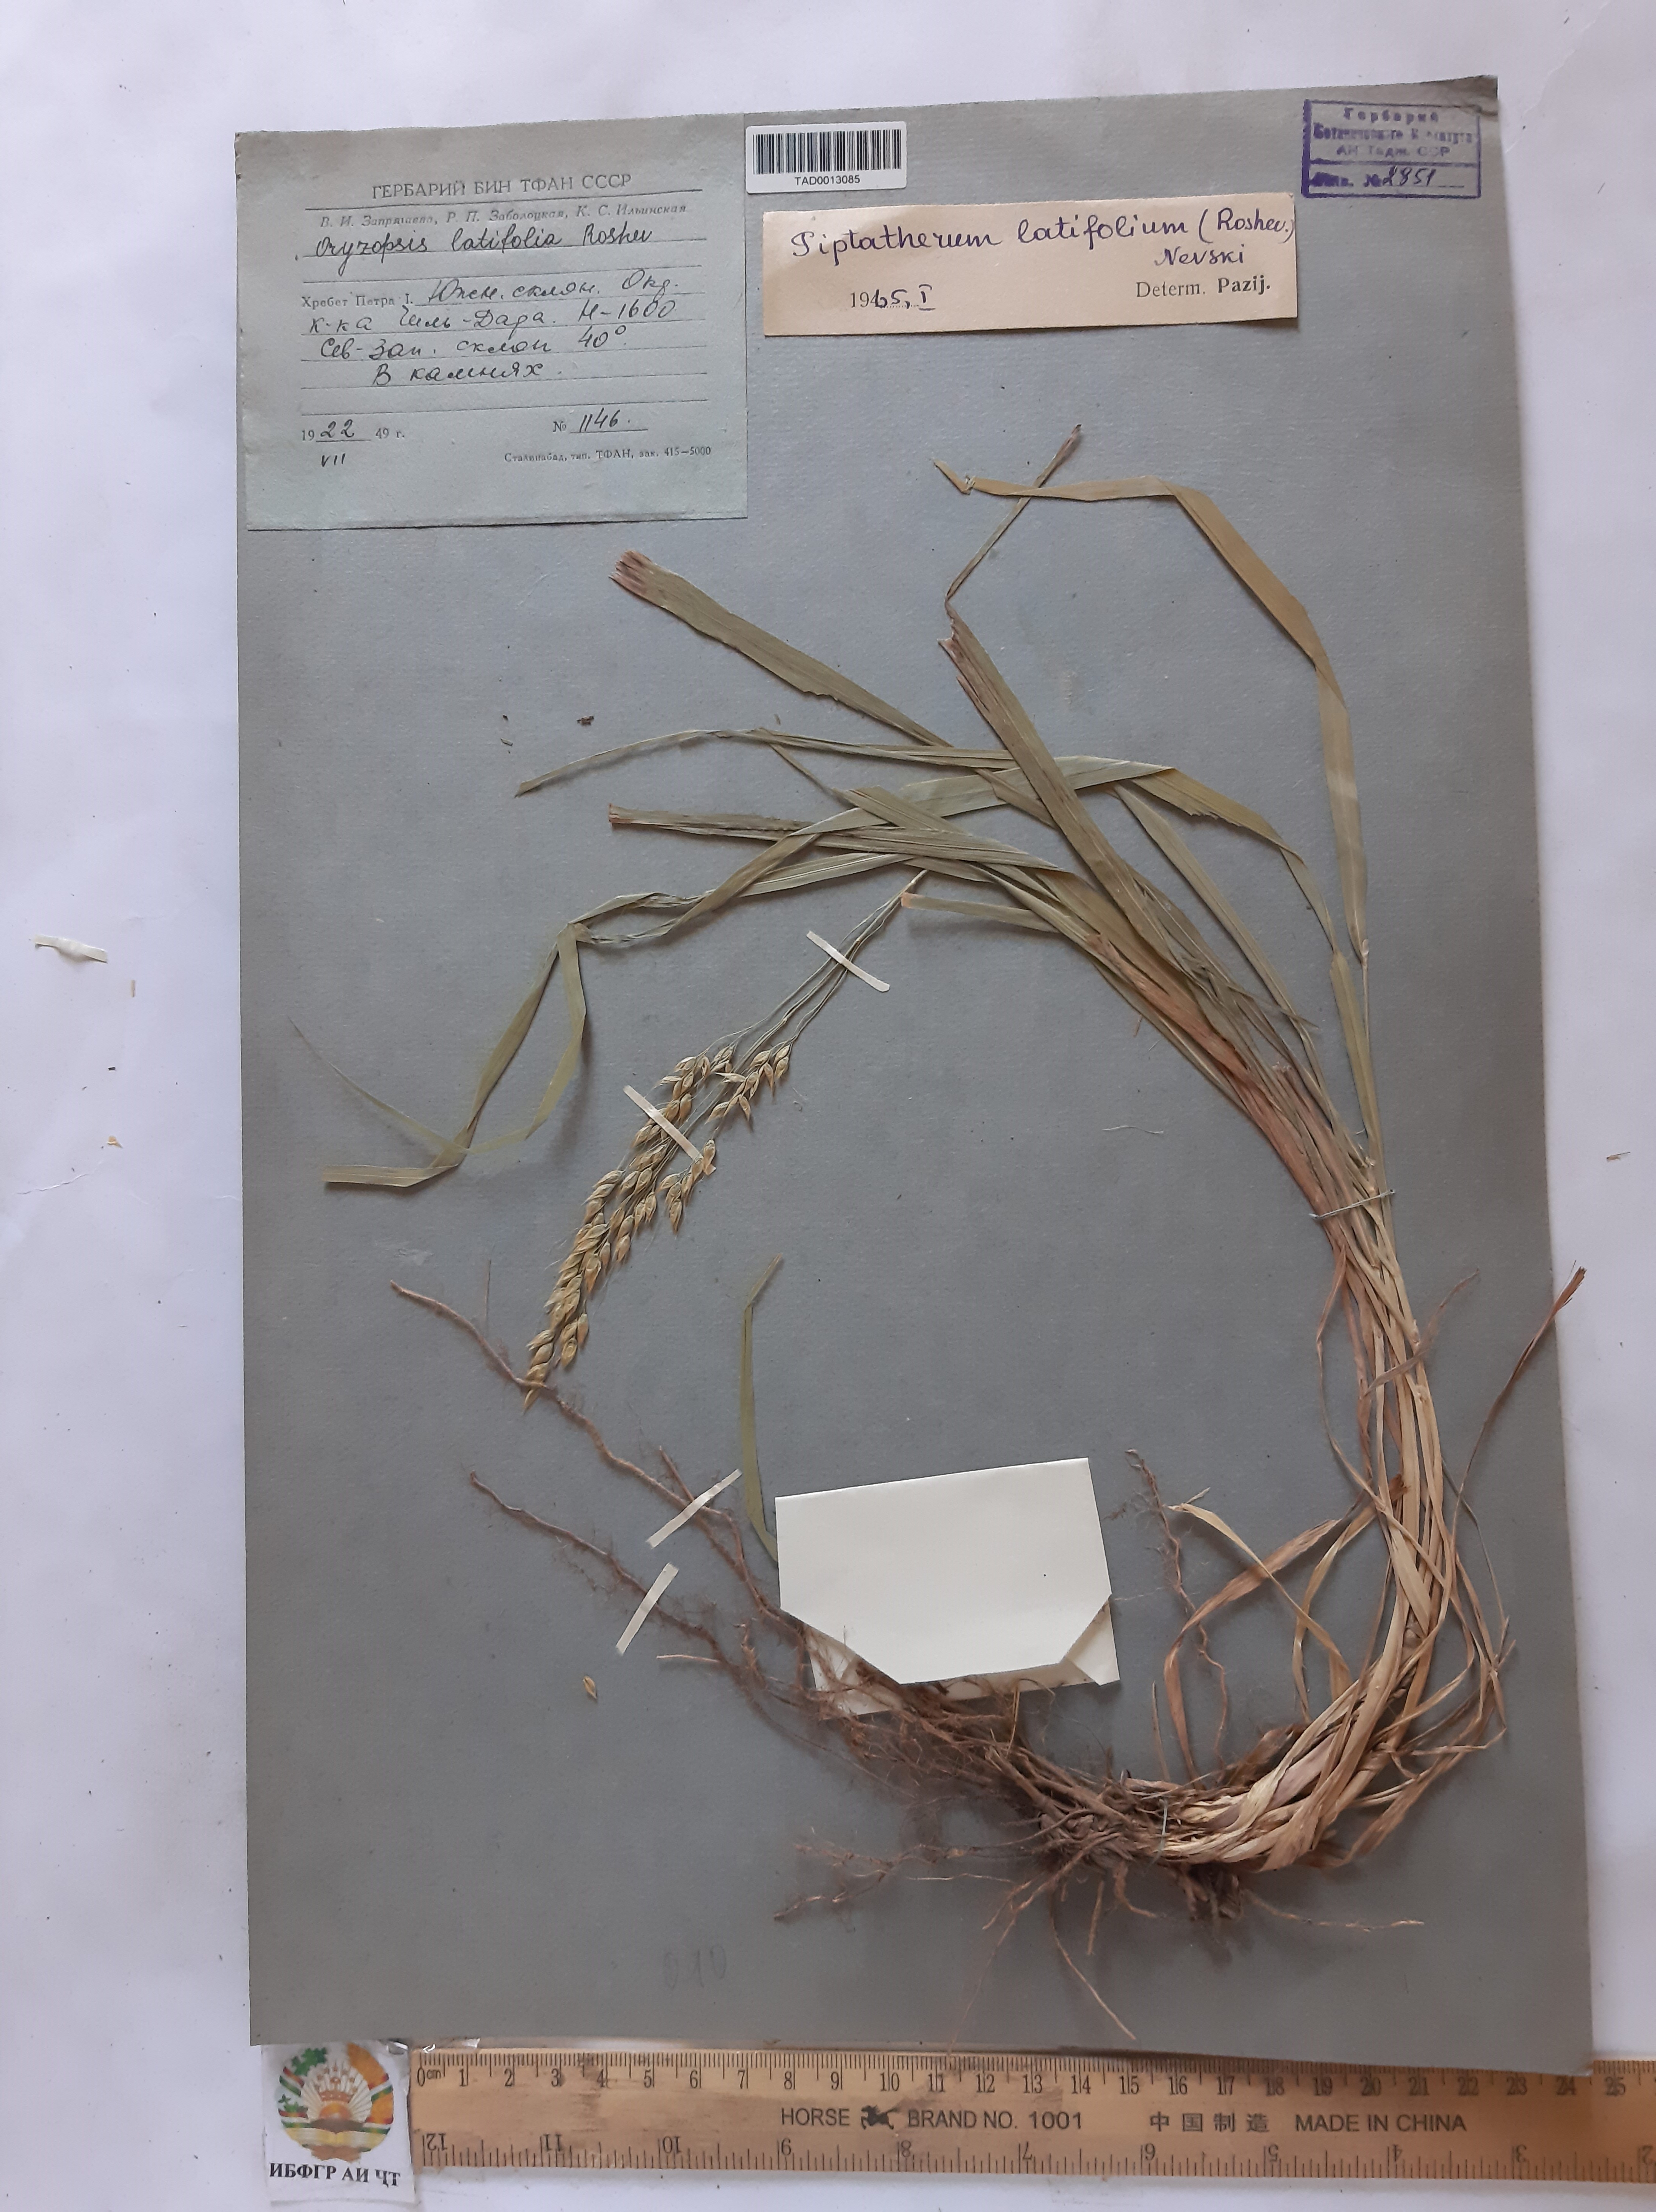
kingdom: Plantae
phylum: Tracheophyta
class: Liliopsida
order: Poales
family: Poaceae
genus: Piptatherum
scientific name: Piptatherum latifolium
